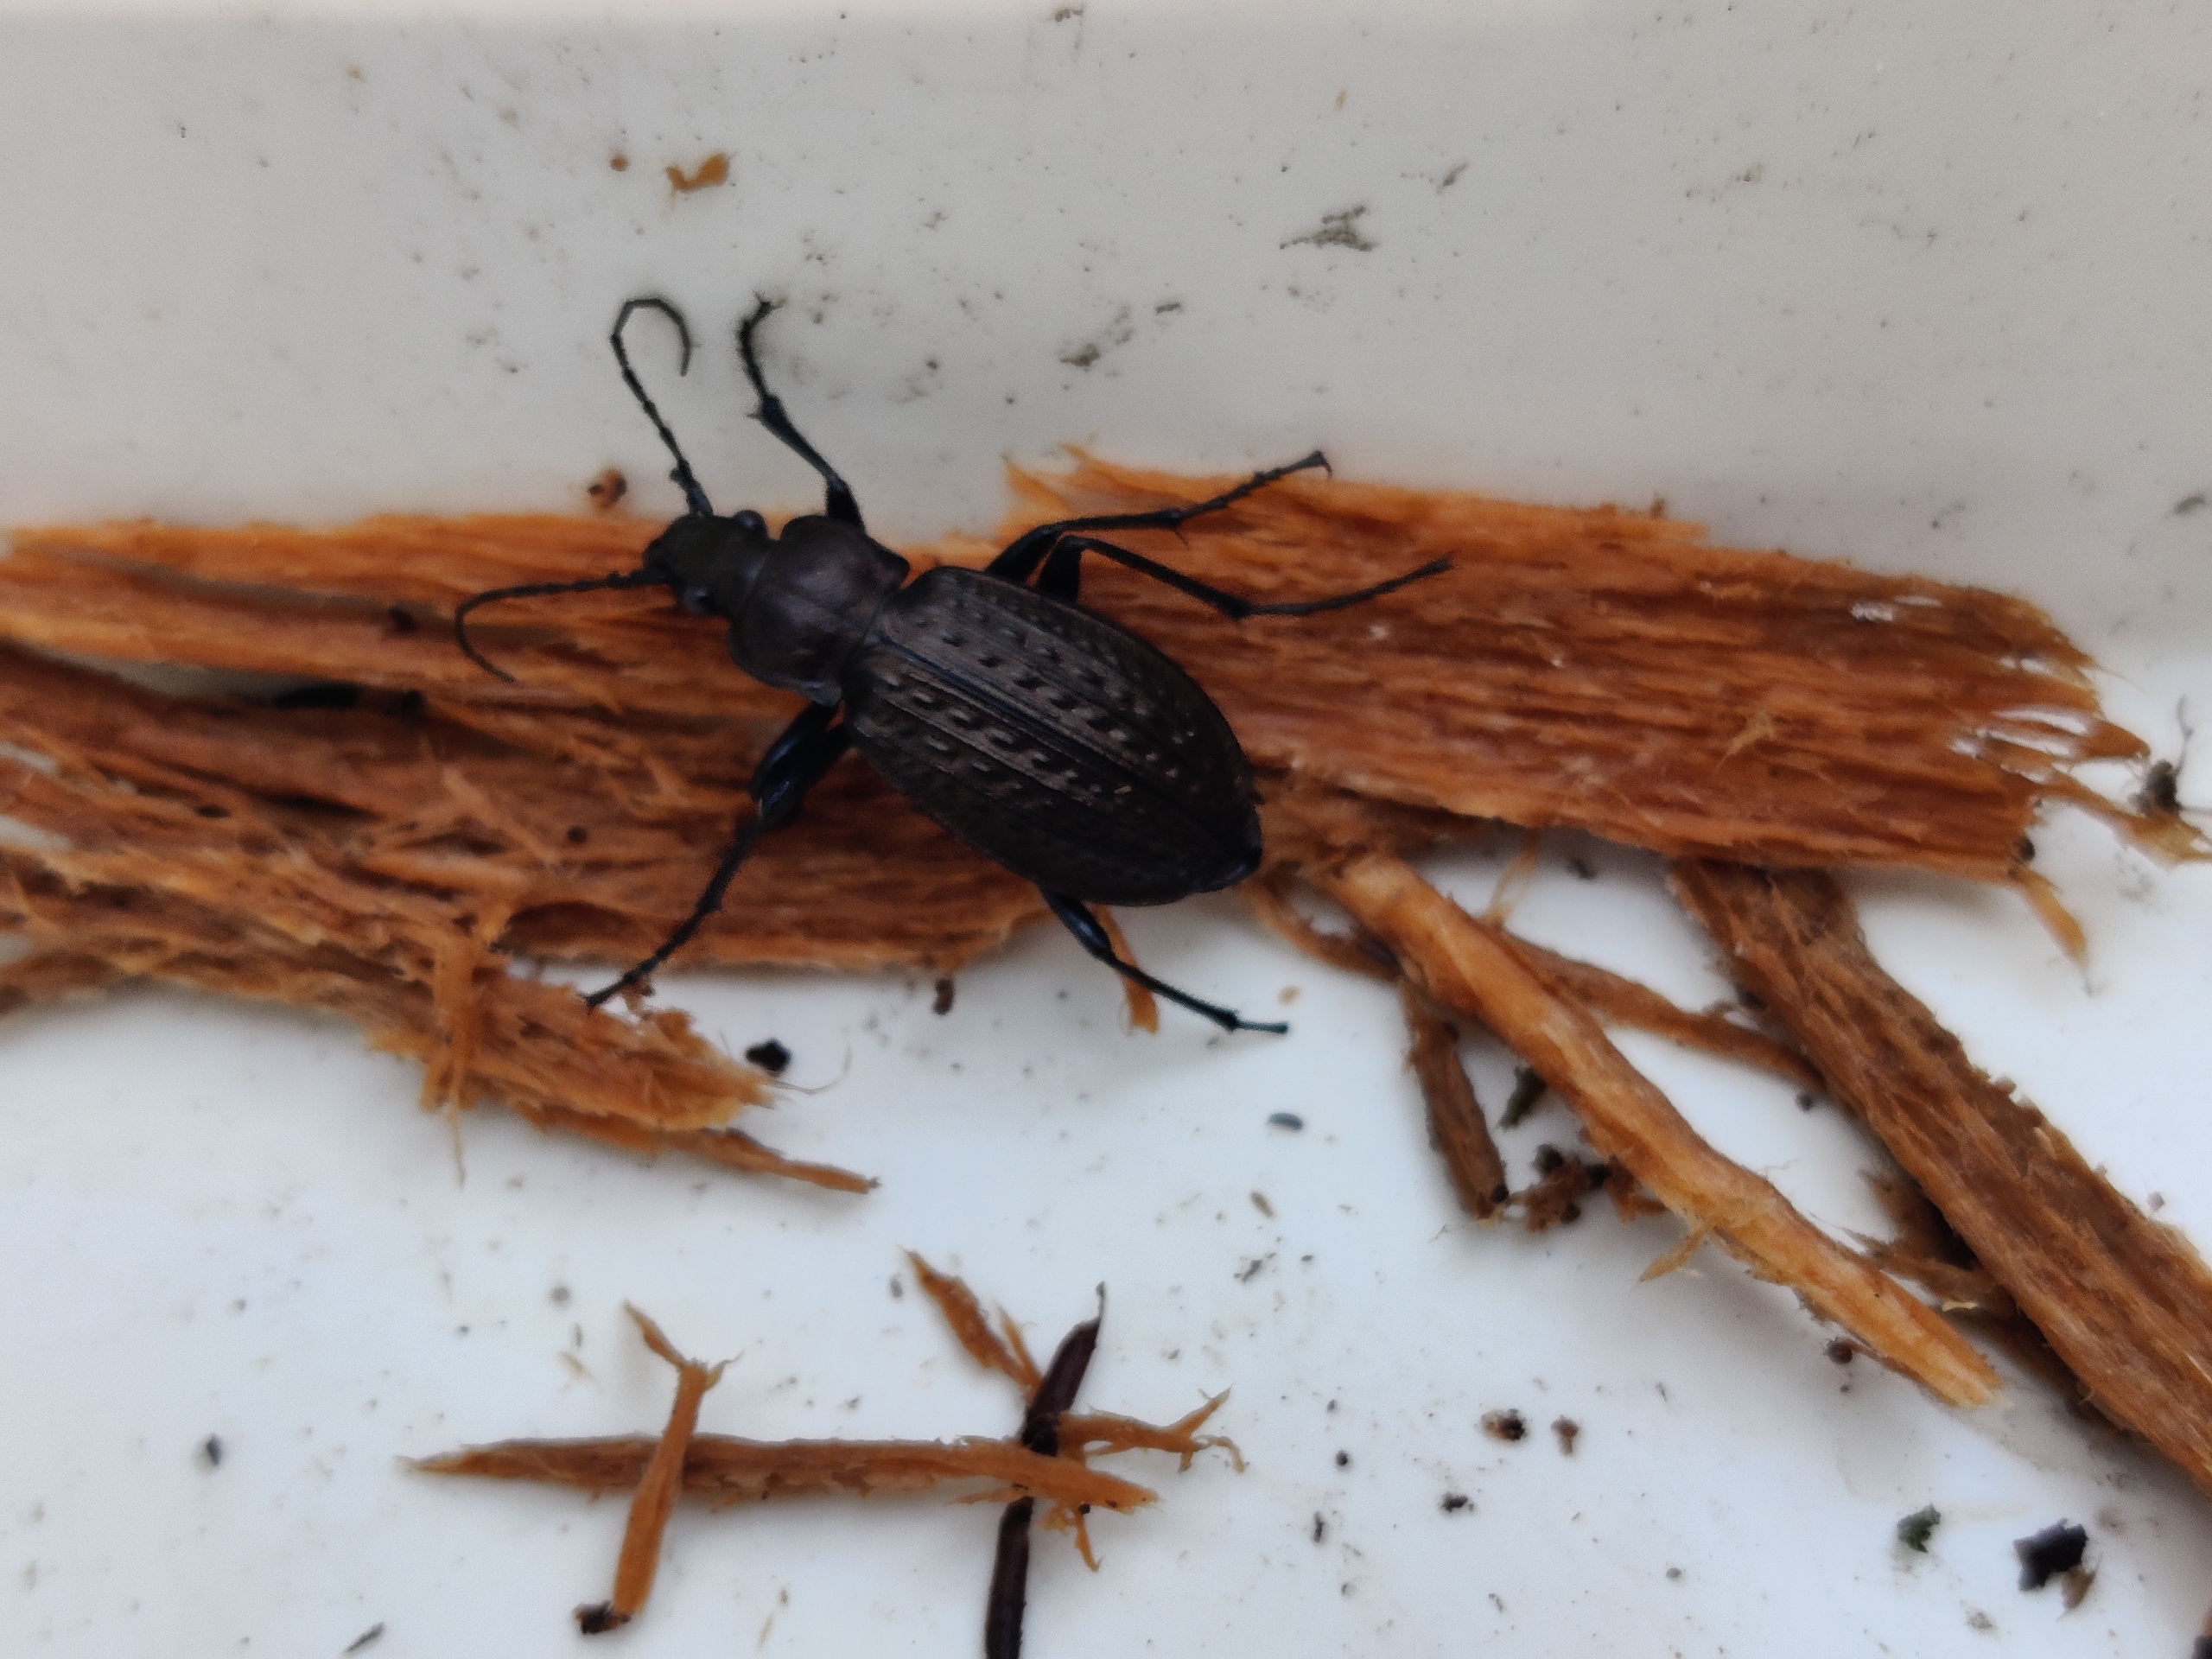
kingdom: Animalia
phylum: Arthropoda
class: Insecta
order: Coleoptera
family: Carabidae
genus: Carabus
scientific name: Carabus granulatus
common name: Kornet løber
